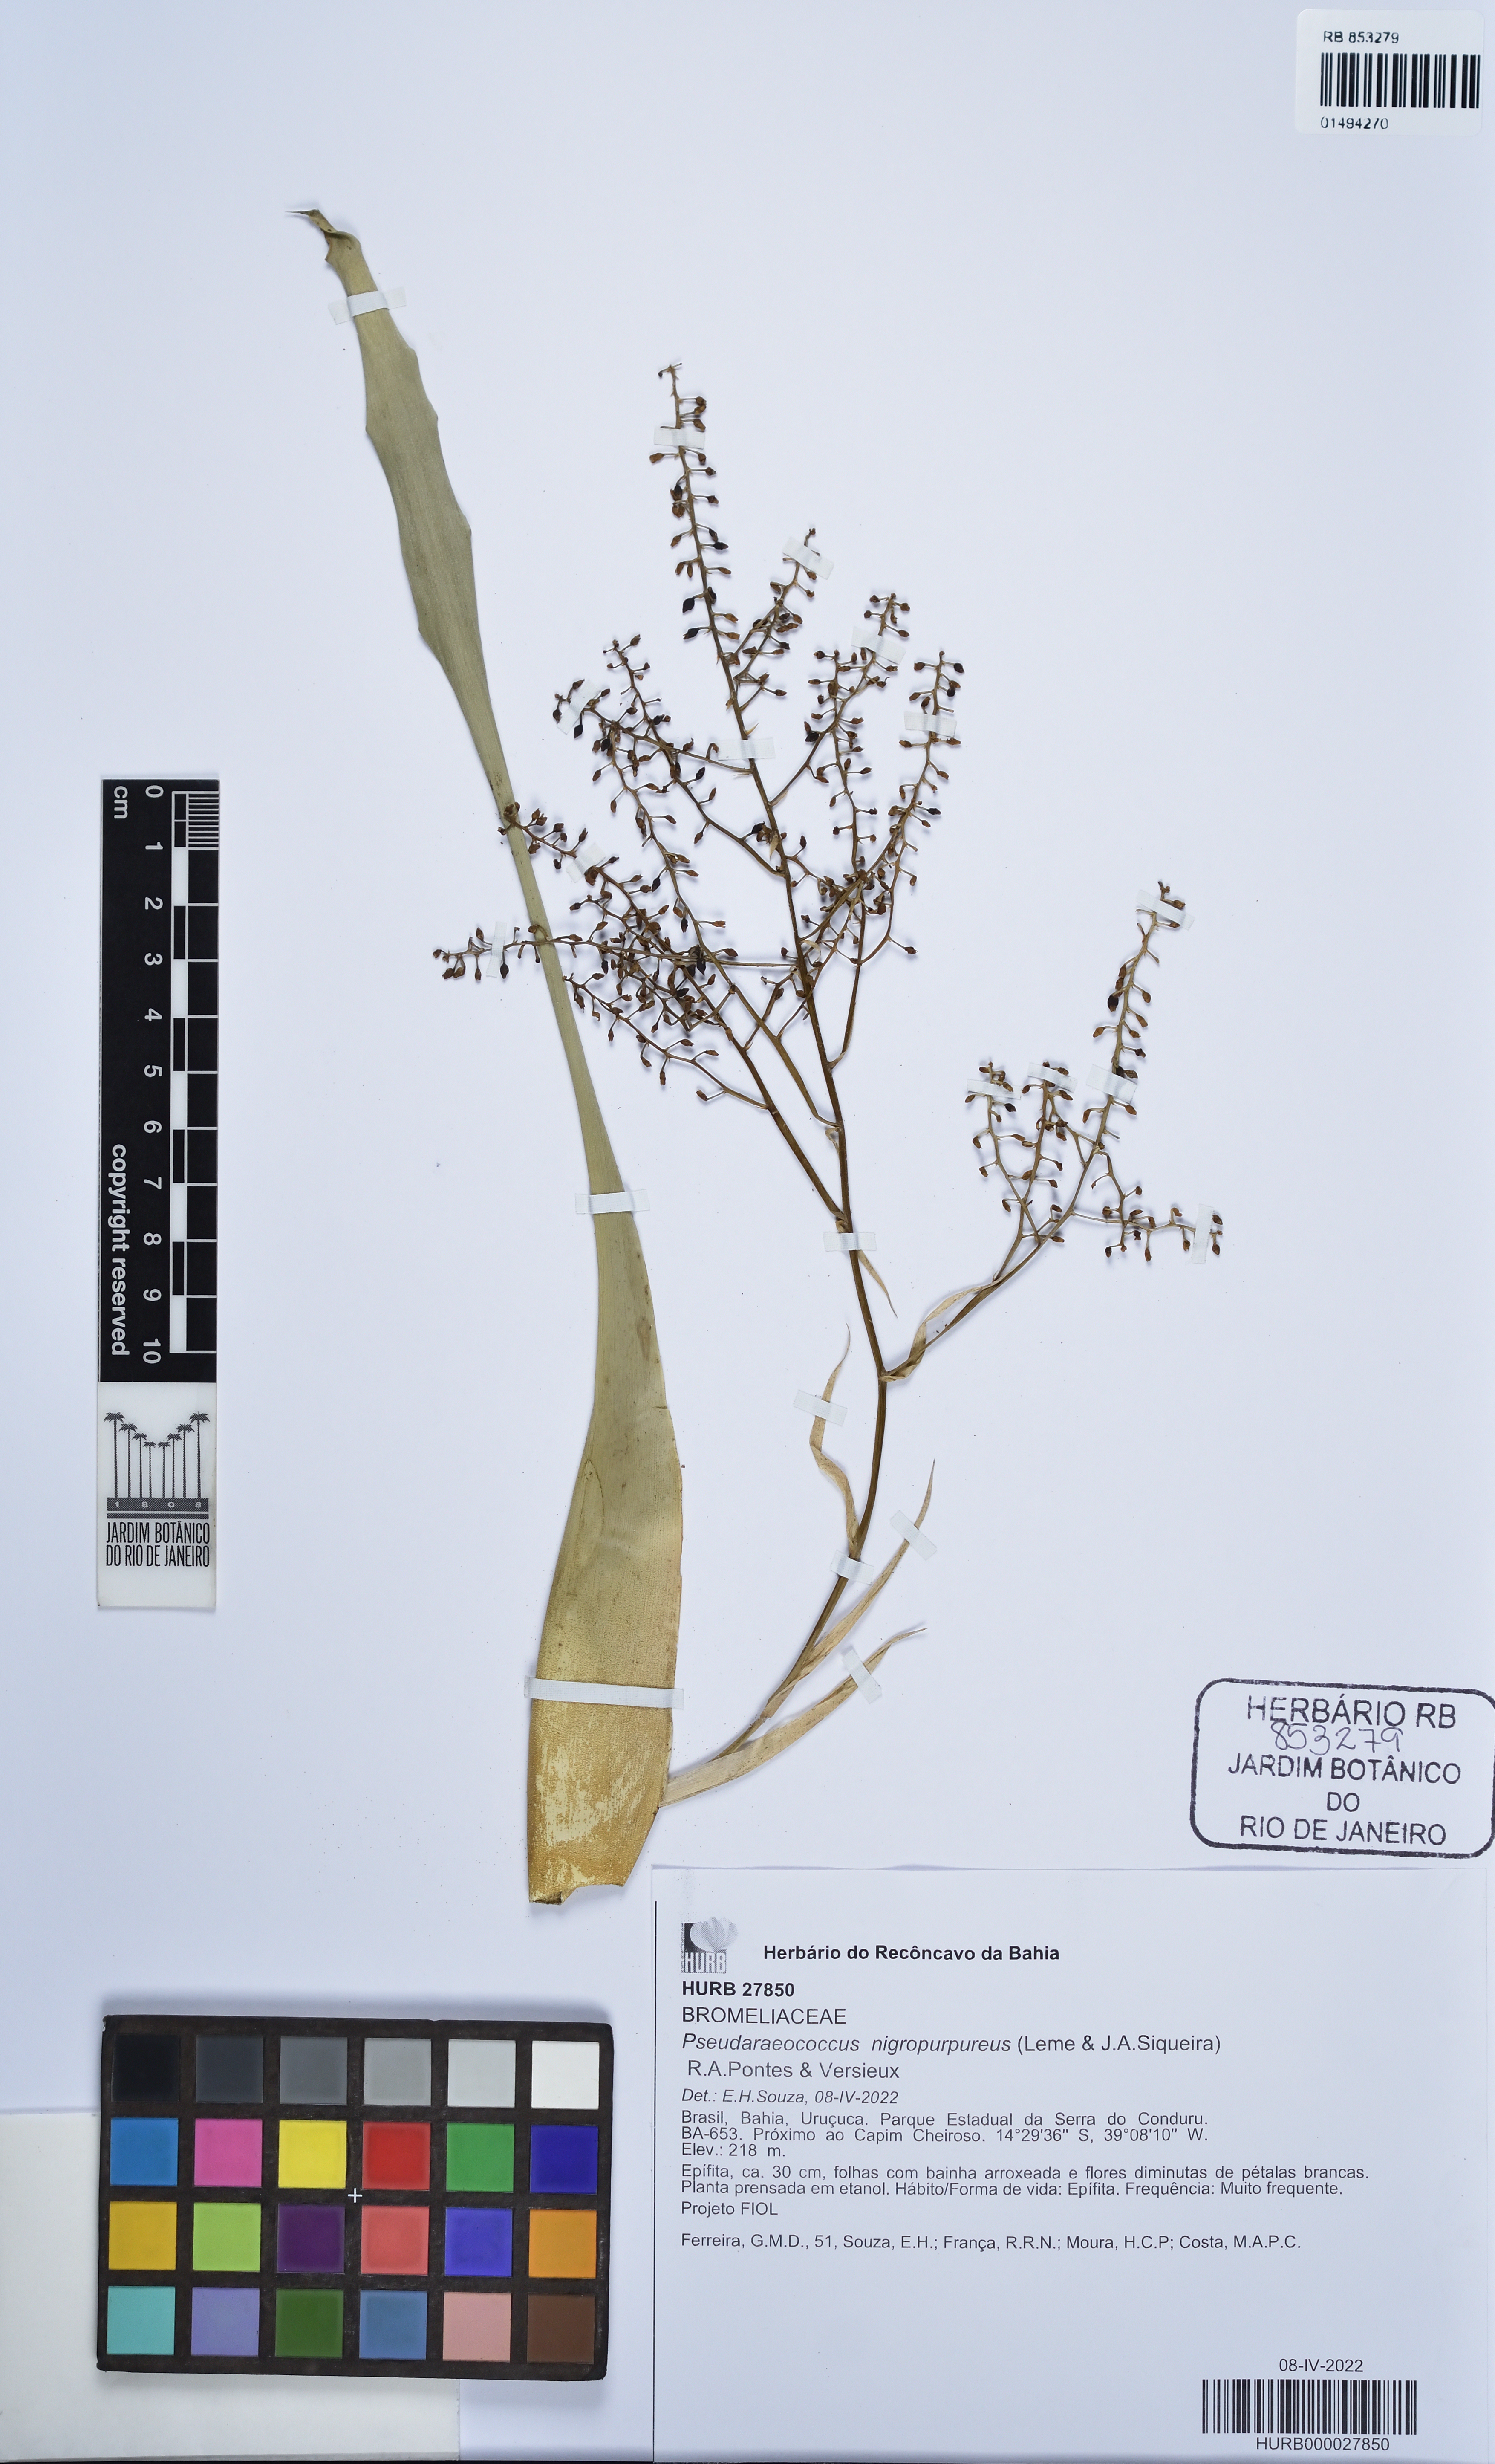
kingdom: Plantae
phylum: Tracheophyta
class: Liliopsida
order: Poales
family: Bromeliaceae
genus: Pseudaraeococcus
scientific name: Pseudaraeococcus nigropurpureus
